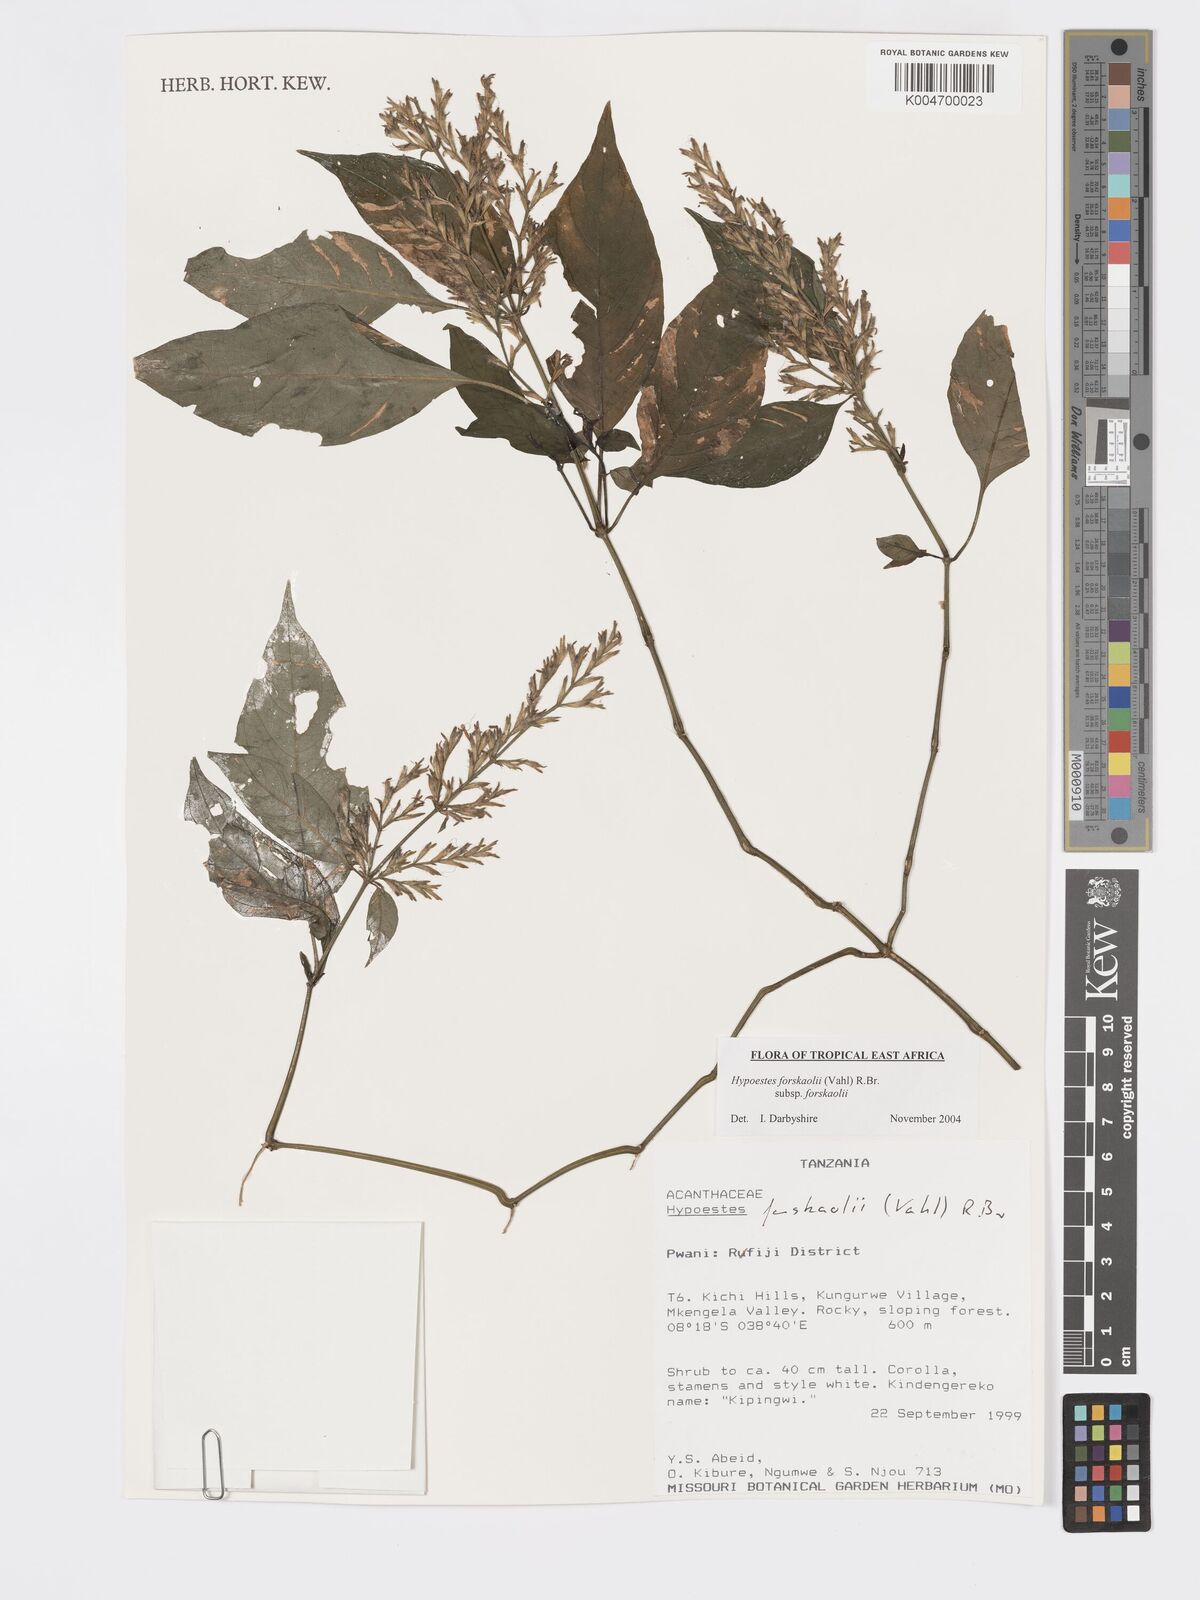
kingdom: Plantae
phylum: Tracheophyta
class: Magnoliopsida
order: Lamiales
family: Acanthaceae
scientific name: Acanthaceae
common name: Acanthaceae
